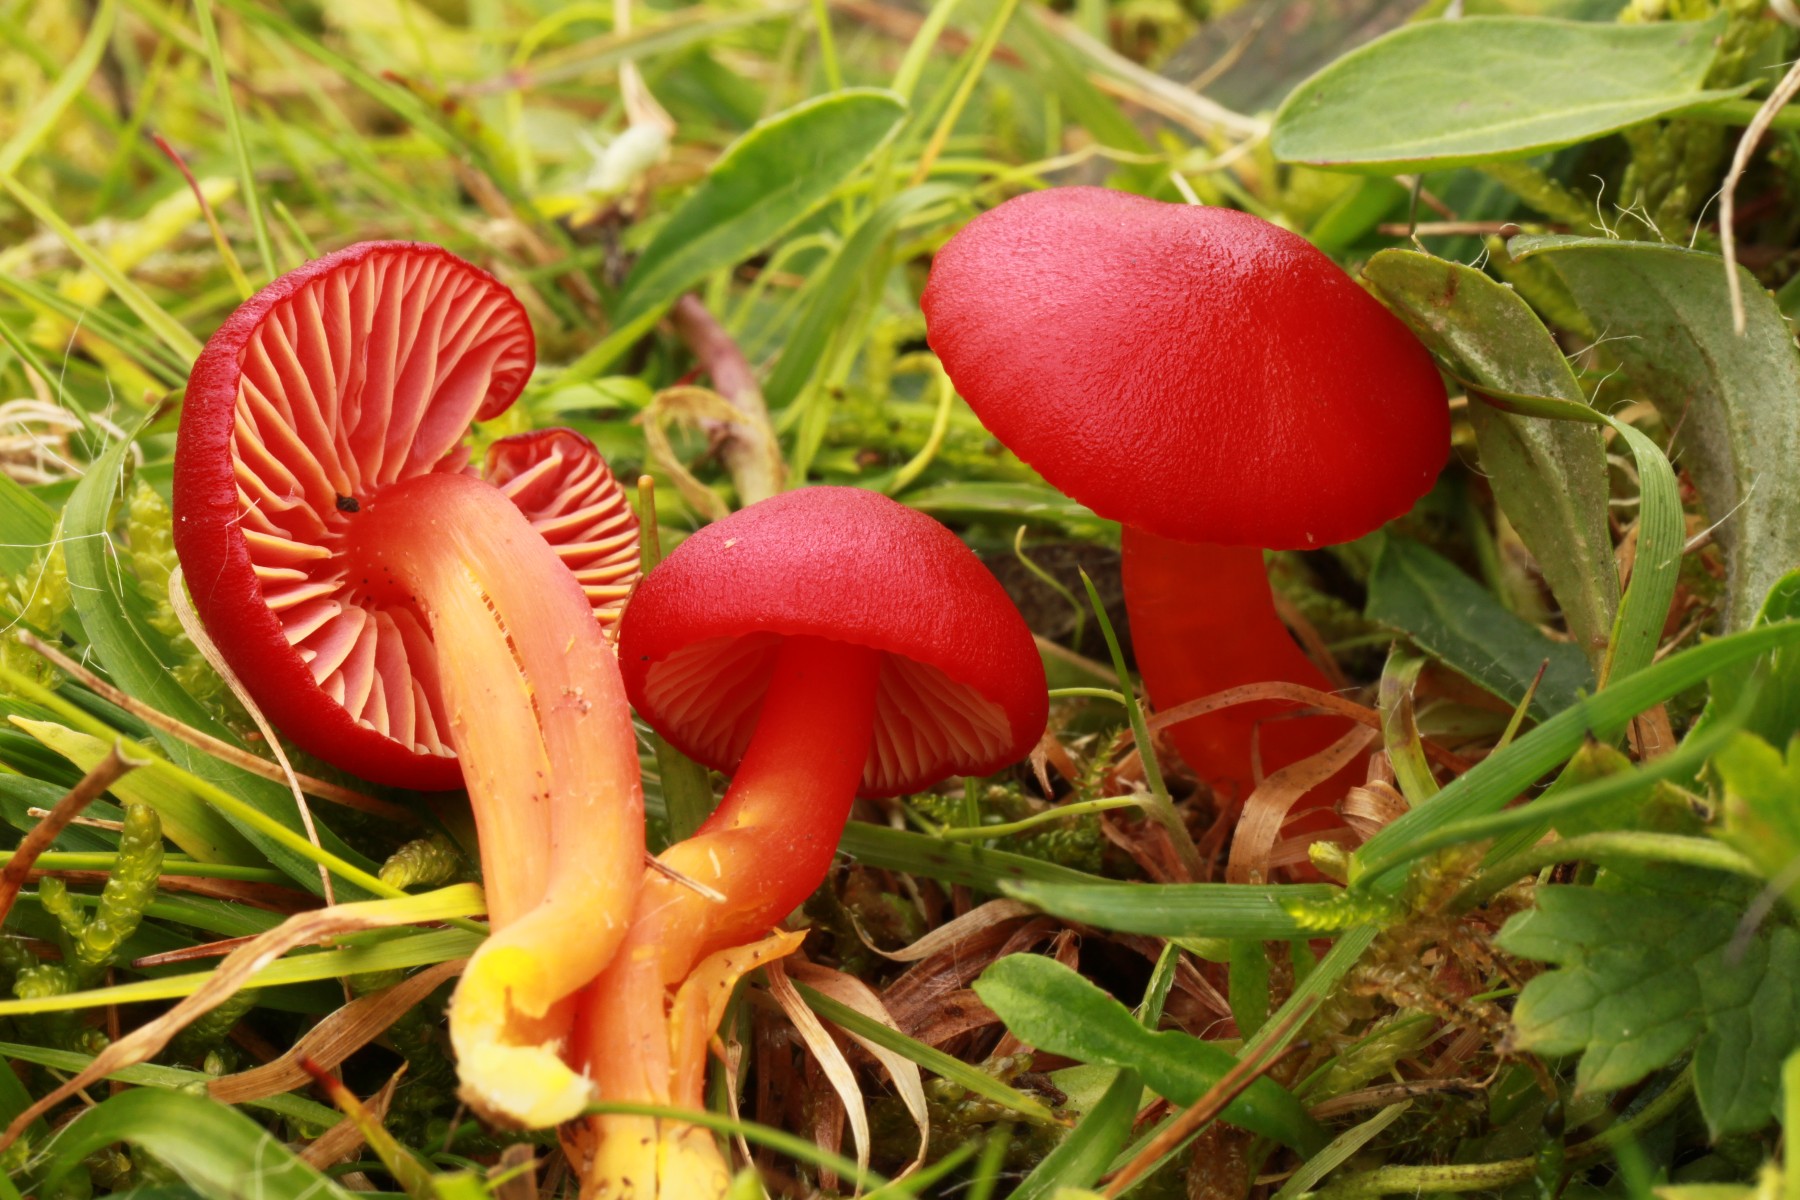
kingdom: Fungi
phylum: Basidiomycota
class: Agaricomycetes
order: Agaricales
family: Hygrophoraceae
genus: Hygrocybe
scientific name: Hygrocybe coccinea
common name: cinnober-vokshat
